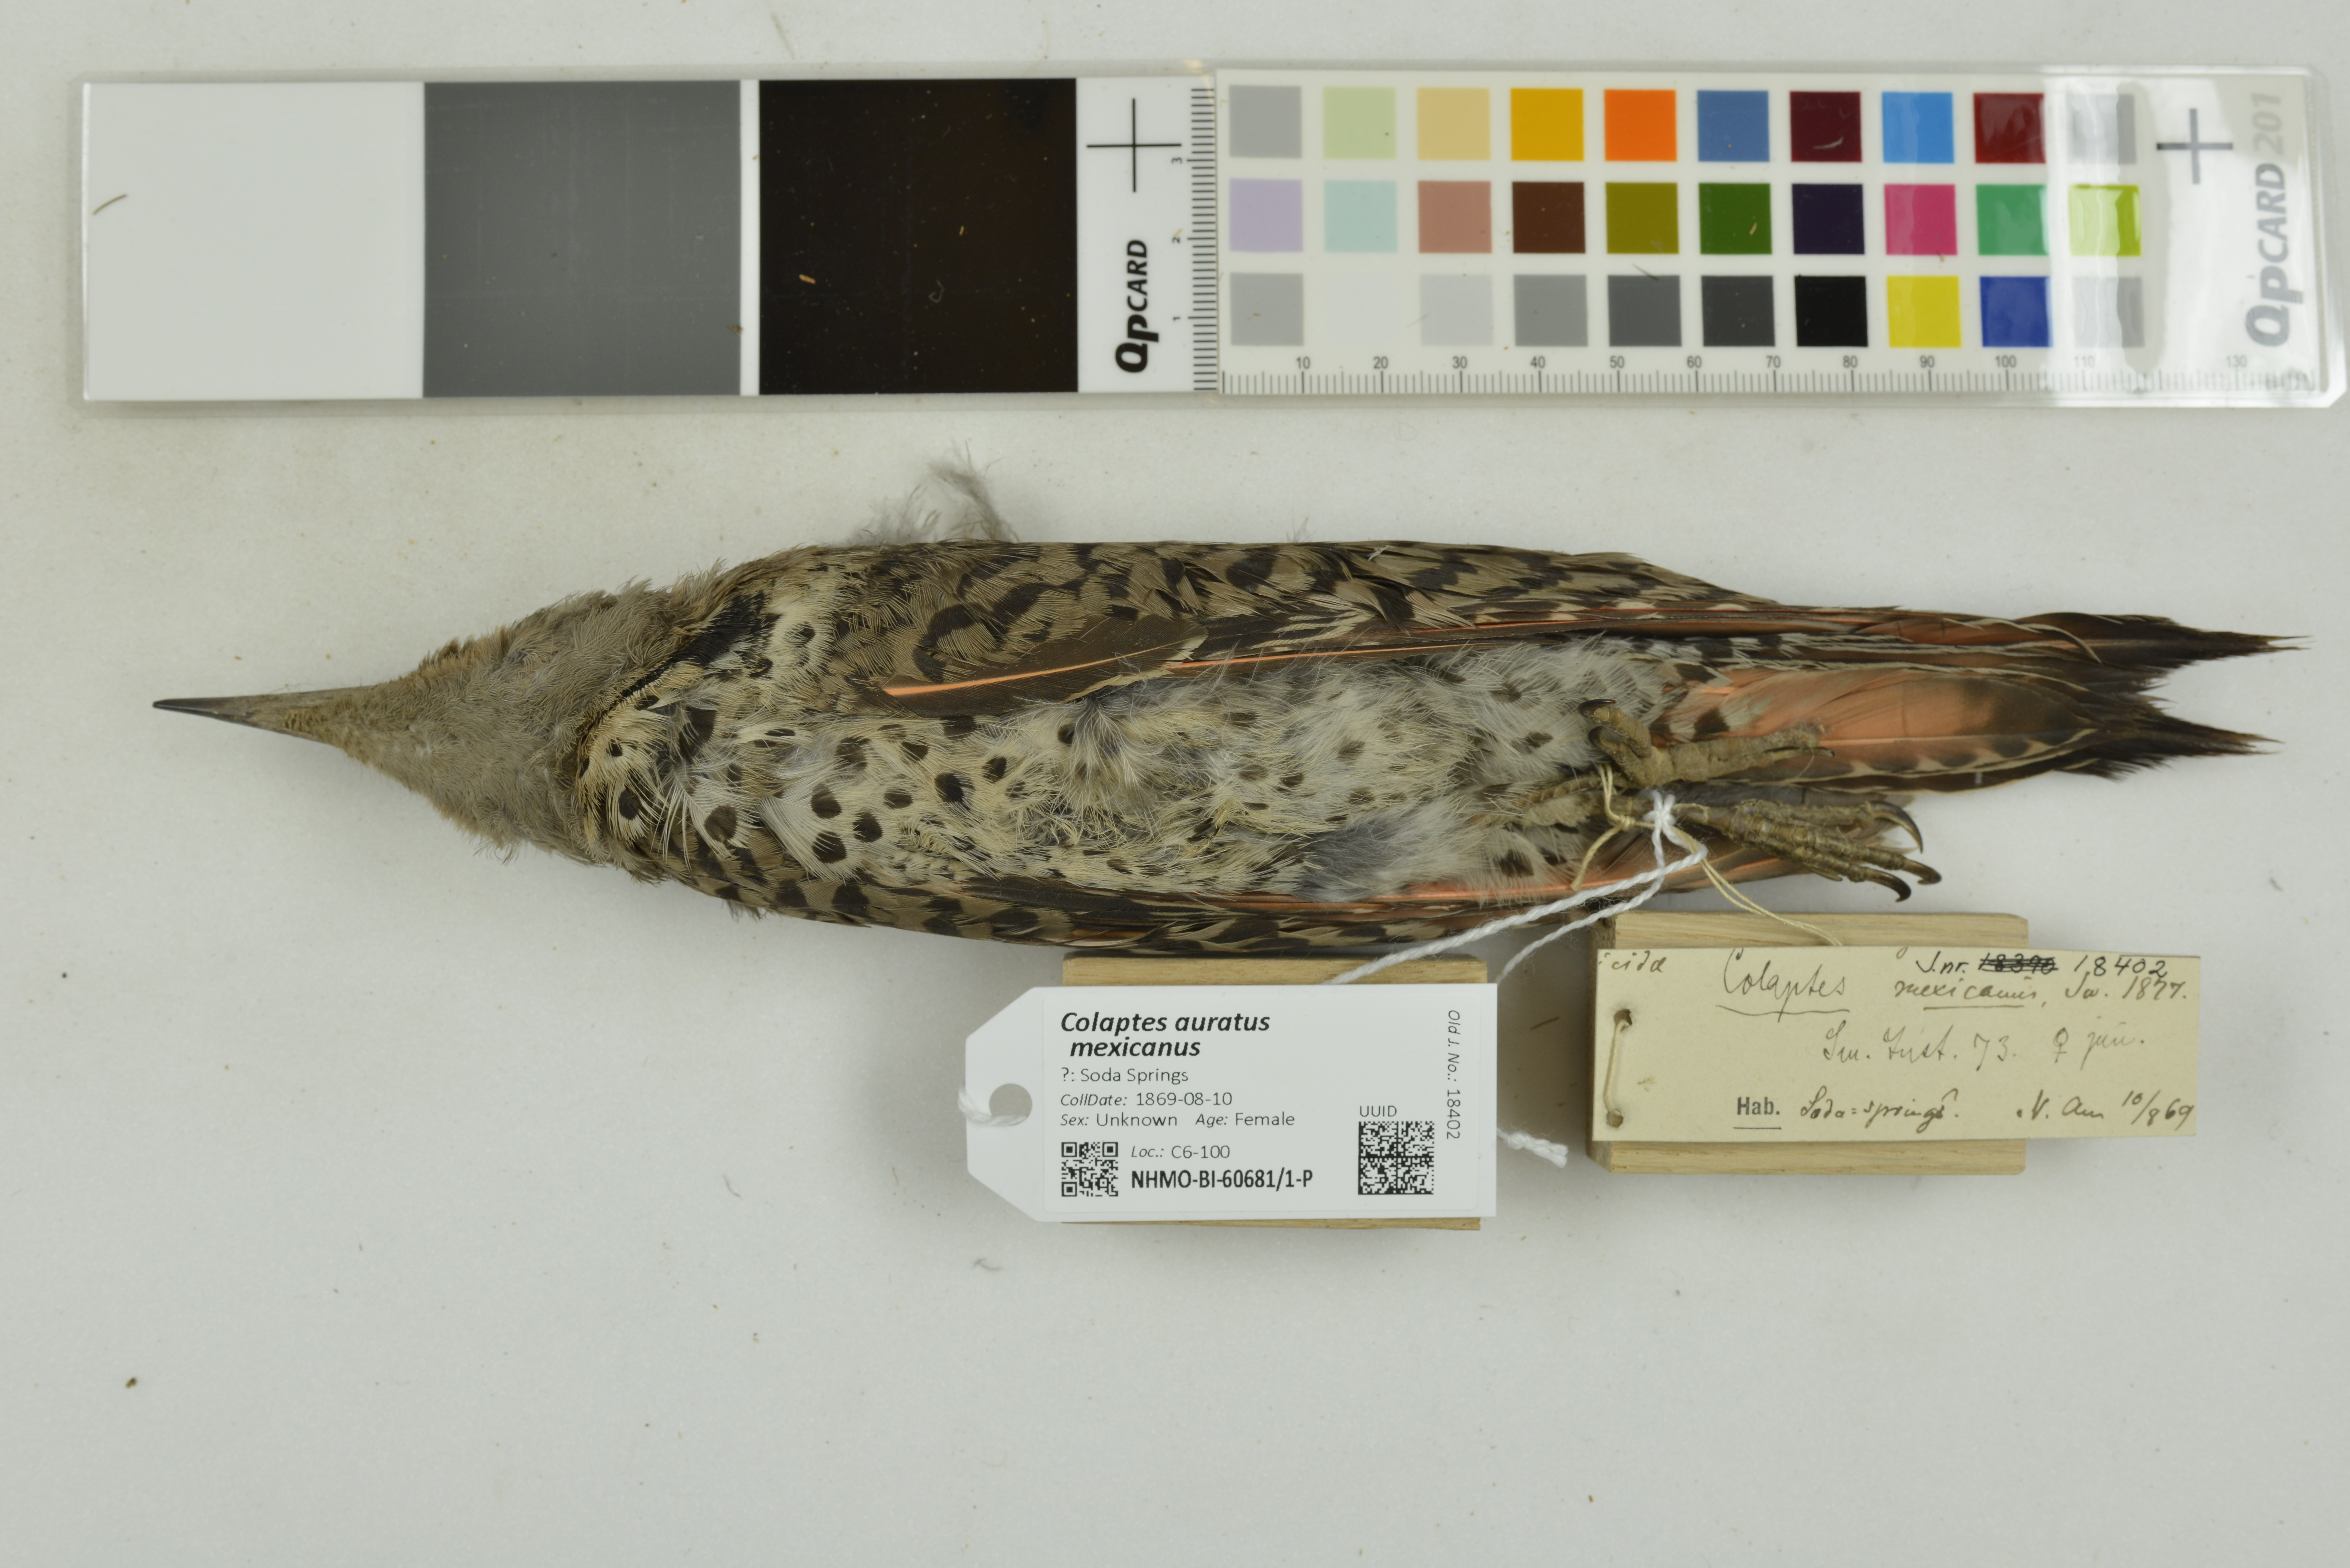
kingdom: Animalia
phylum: Chordata
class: Aves
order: Piciformes
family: Picidae
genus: Colaptes
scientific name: Colaptes auratus
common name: Northern flicker
